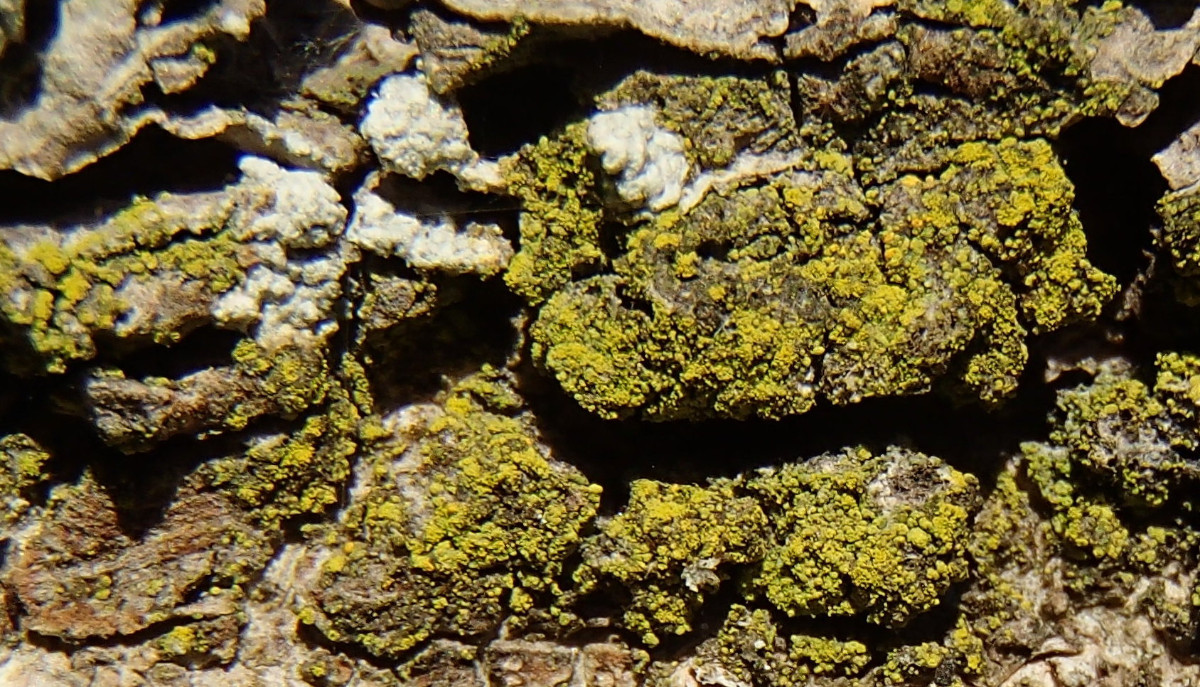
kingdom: Fungi
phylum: Ascomycota
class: Candelariomycetes
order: Candelariales
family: Candelariaceae
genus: Candelariella
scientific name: Candelariella reflexa
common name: grynskællet æggeblommelav
